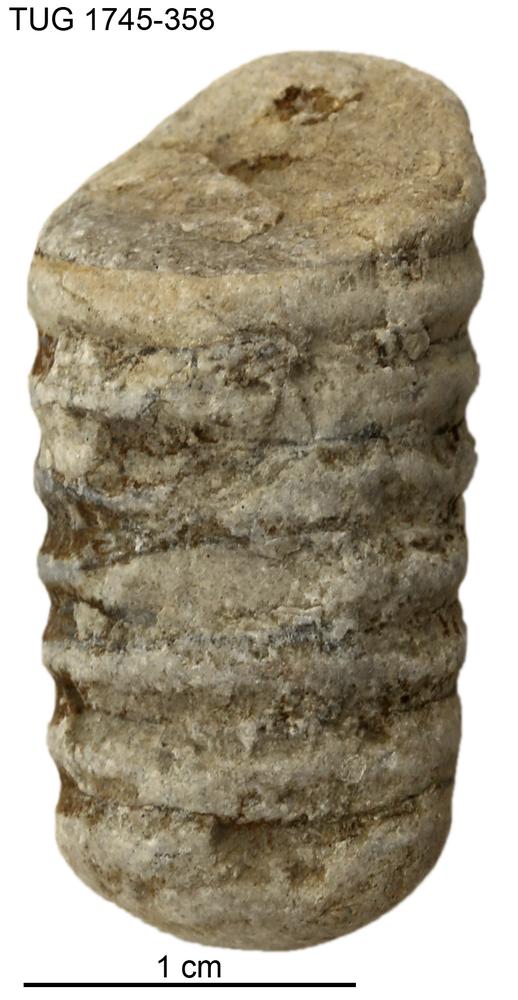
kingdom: Animalia
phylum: Mollusca
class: Cephalopoda
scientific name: Cephalopoda
